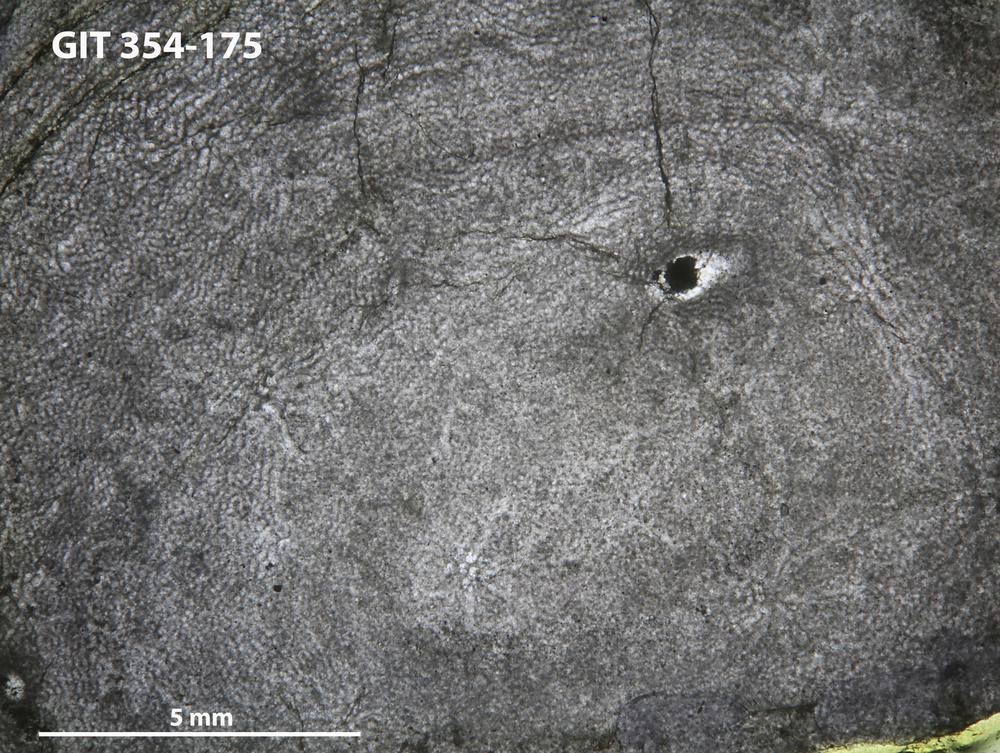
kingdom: Animalia
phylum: Porifera
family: Clathrodictyidae
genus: Clathrodictyon
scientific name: Clathrodictyon boreale
